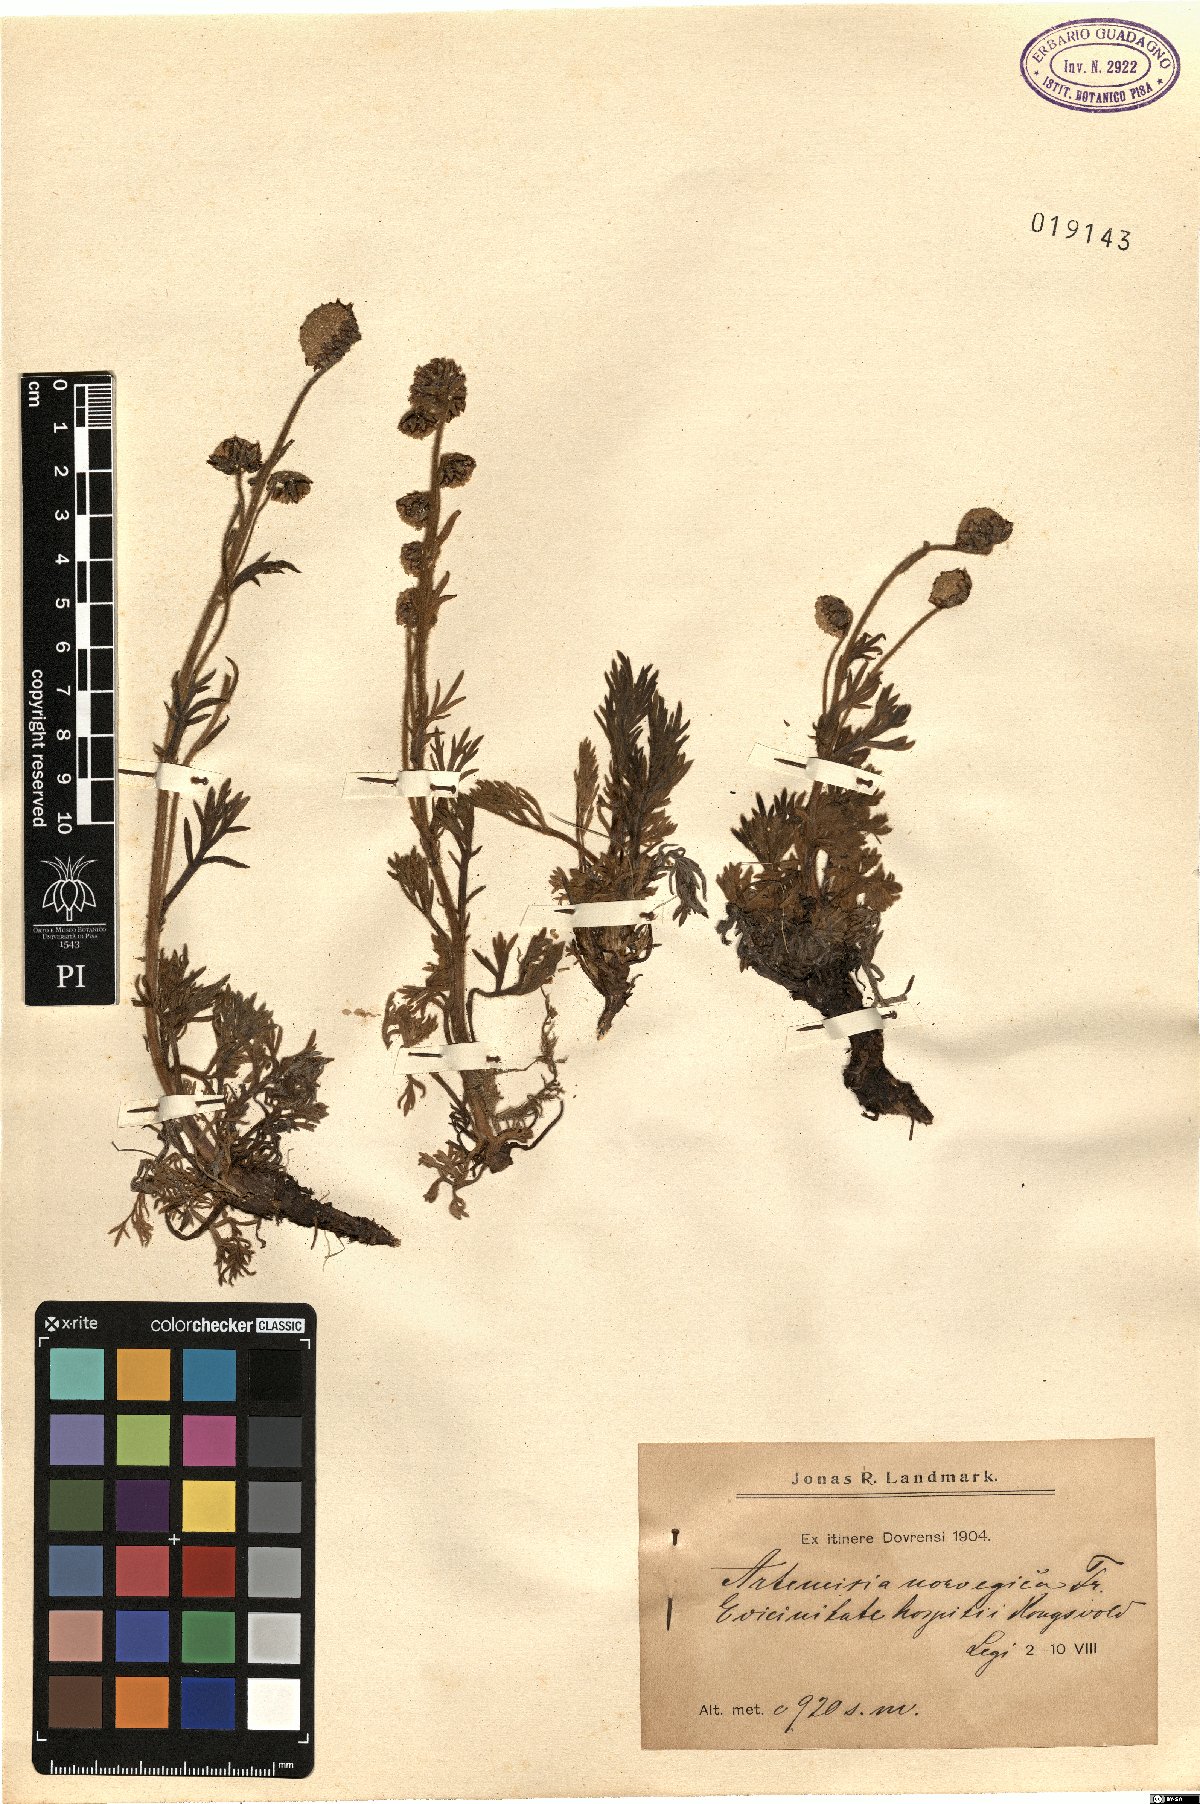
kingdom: Plantae
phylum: Tracheophyta
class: Magnoliopsida
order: Asterales
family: Asteraceae
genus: Artemisia
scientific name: Artemisia norvegica
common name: Norwegian mugwort
